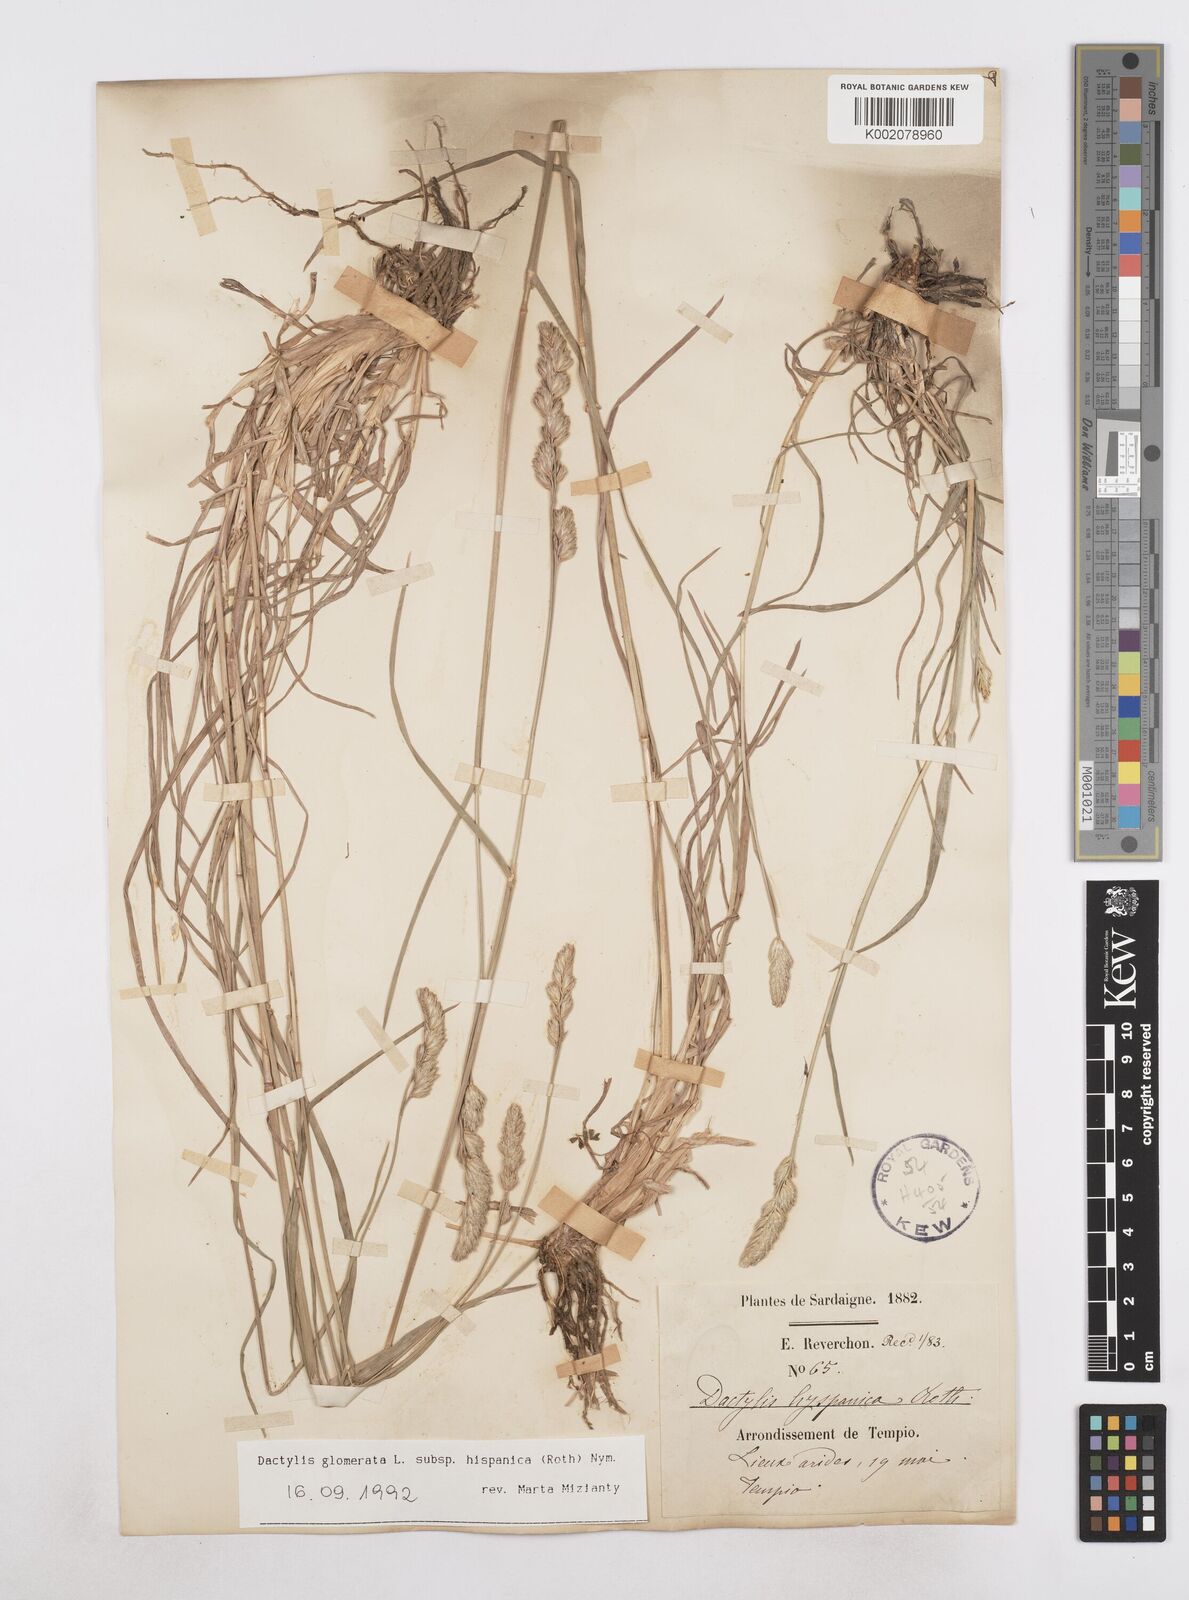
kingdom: Plantae
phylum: Tracheophyta
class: Liliopsida
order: Poales
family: Poaceae
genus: Dactylis
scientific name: Dactylis glomerata
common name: Orchardgrass
